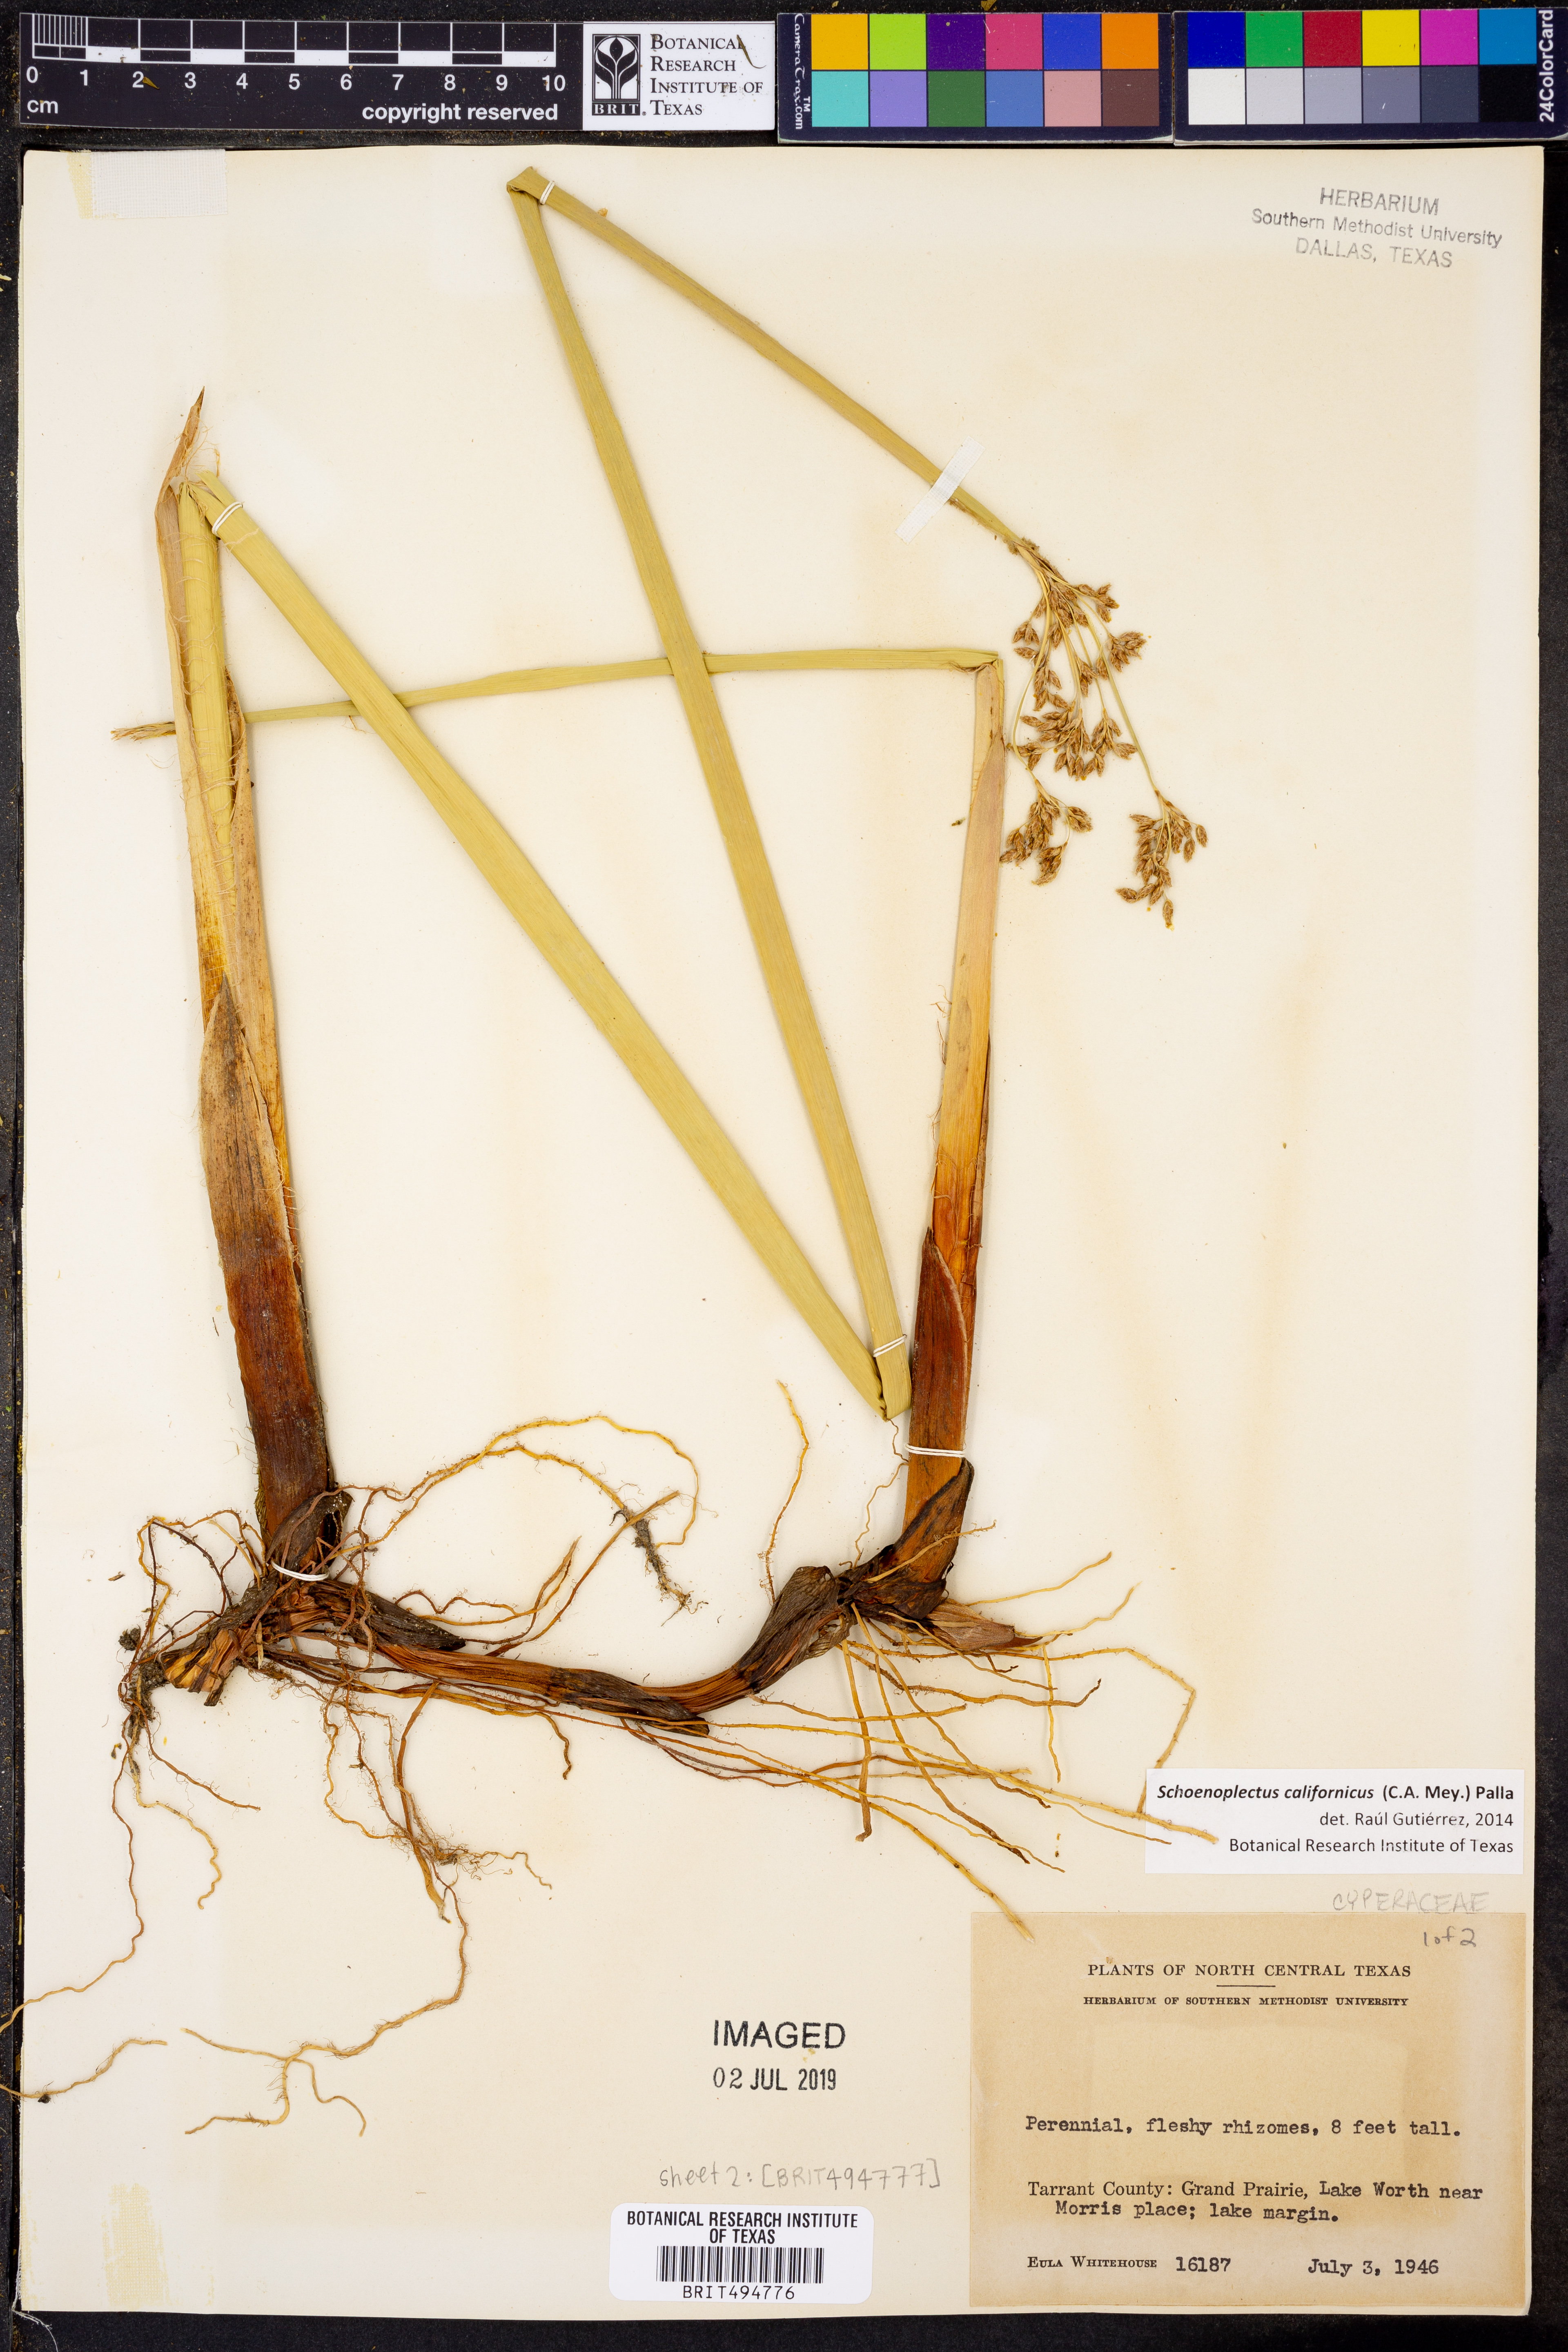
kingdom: Plantae
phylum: Tracheophyta
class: Liliopsida
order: Poales
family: Cyperaceae
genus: Schoenoplectus
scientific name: Schoenoplectus californicus
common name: California bulrush
